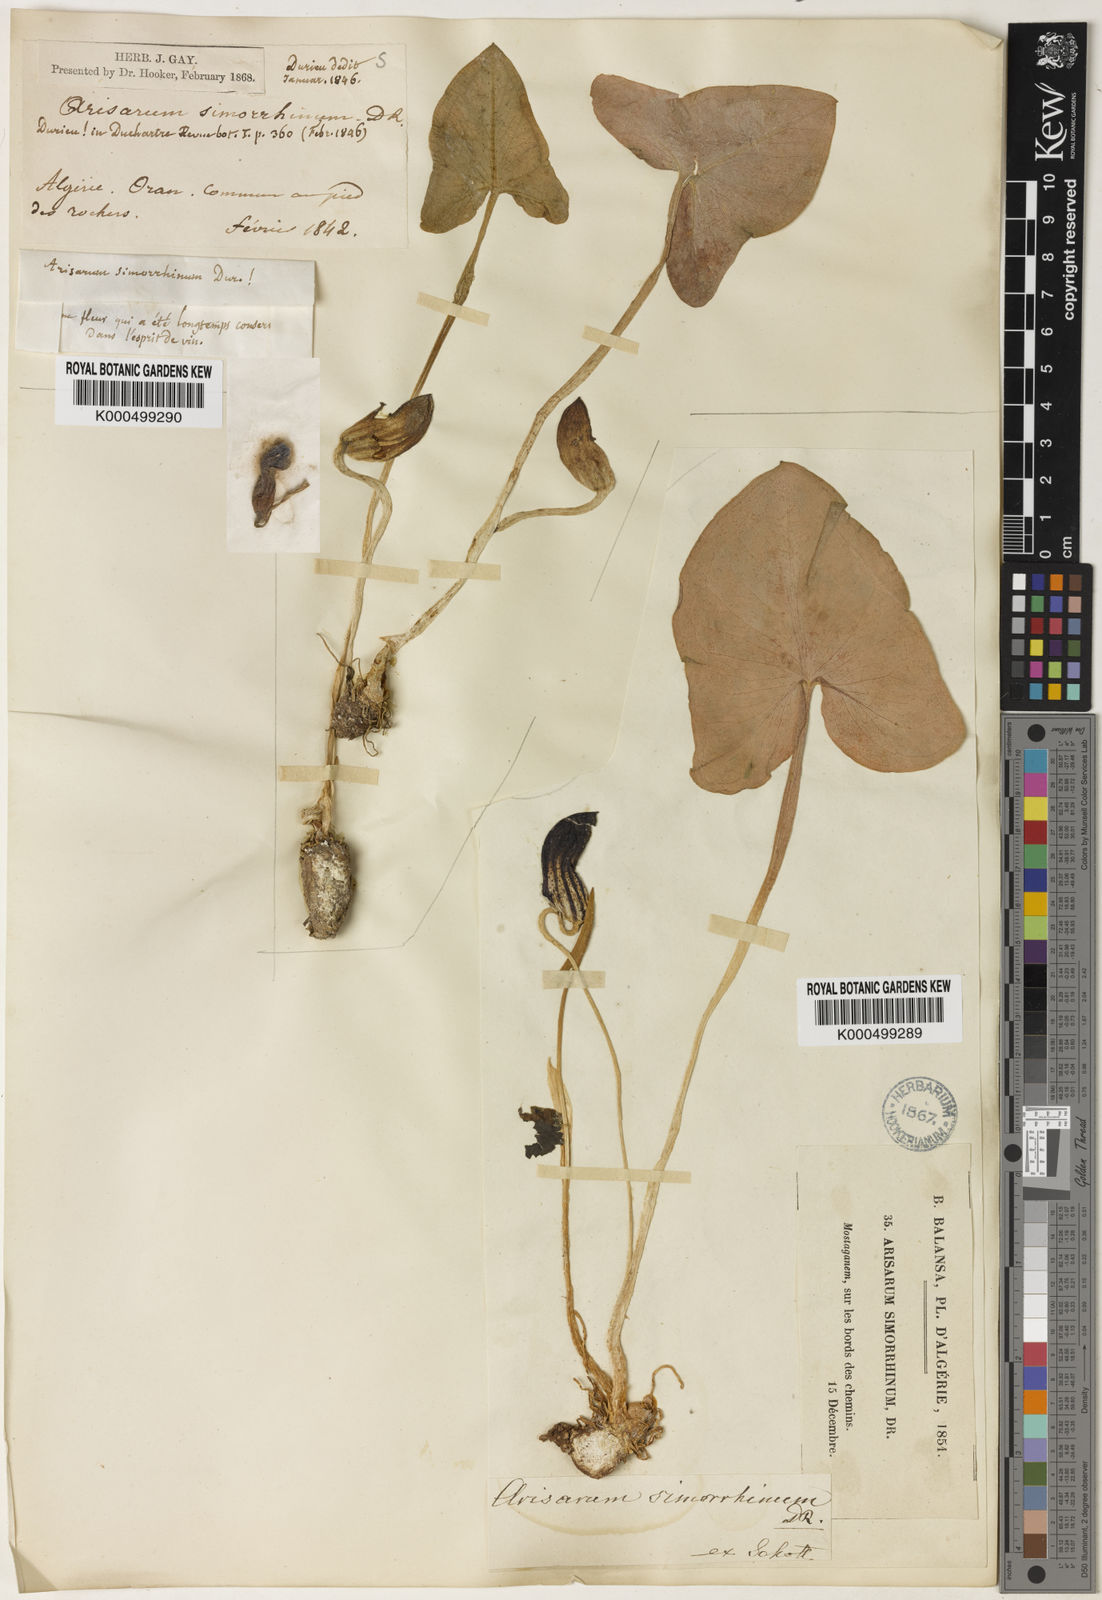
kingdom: Plantae
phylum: Tracheophyta
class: Liliopsida
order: Alismatales
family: Araceae
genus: Arisarum
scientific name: Arisarum simorrhinum
